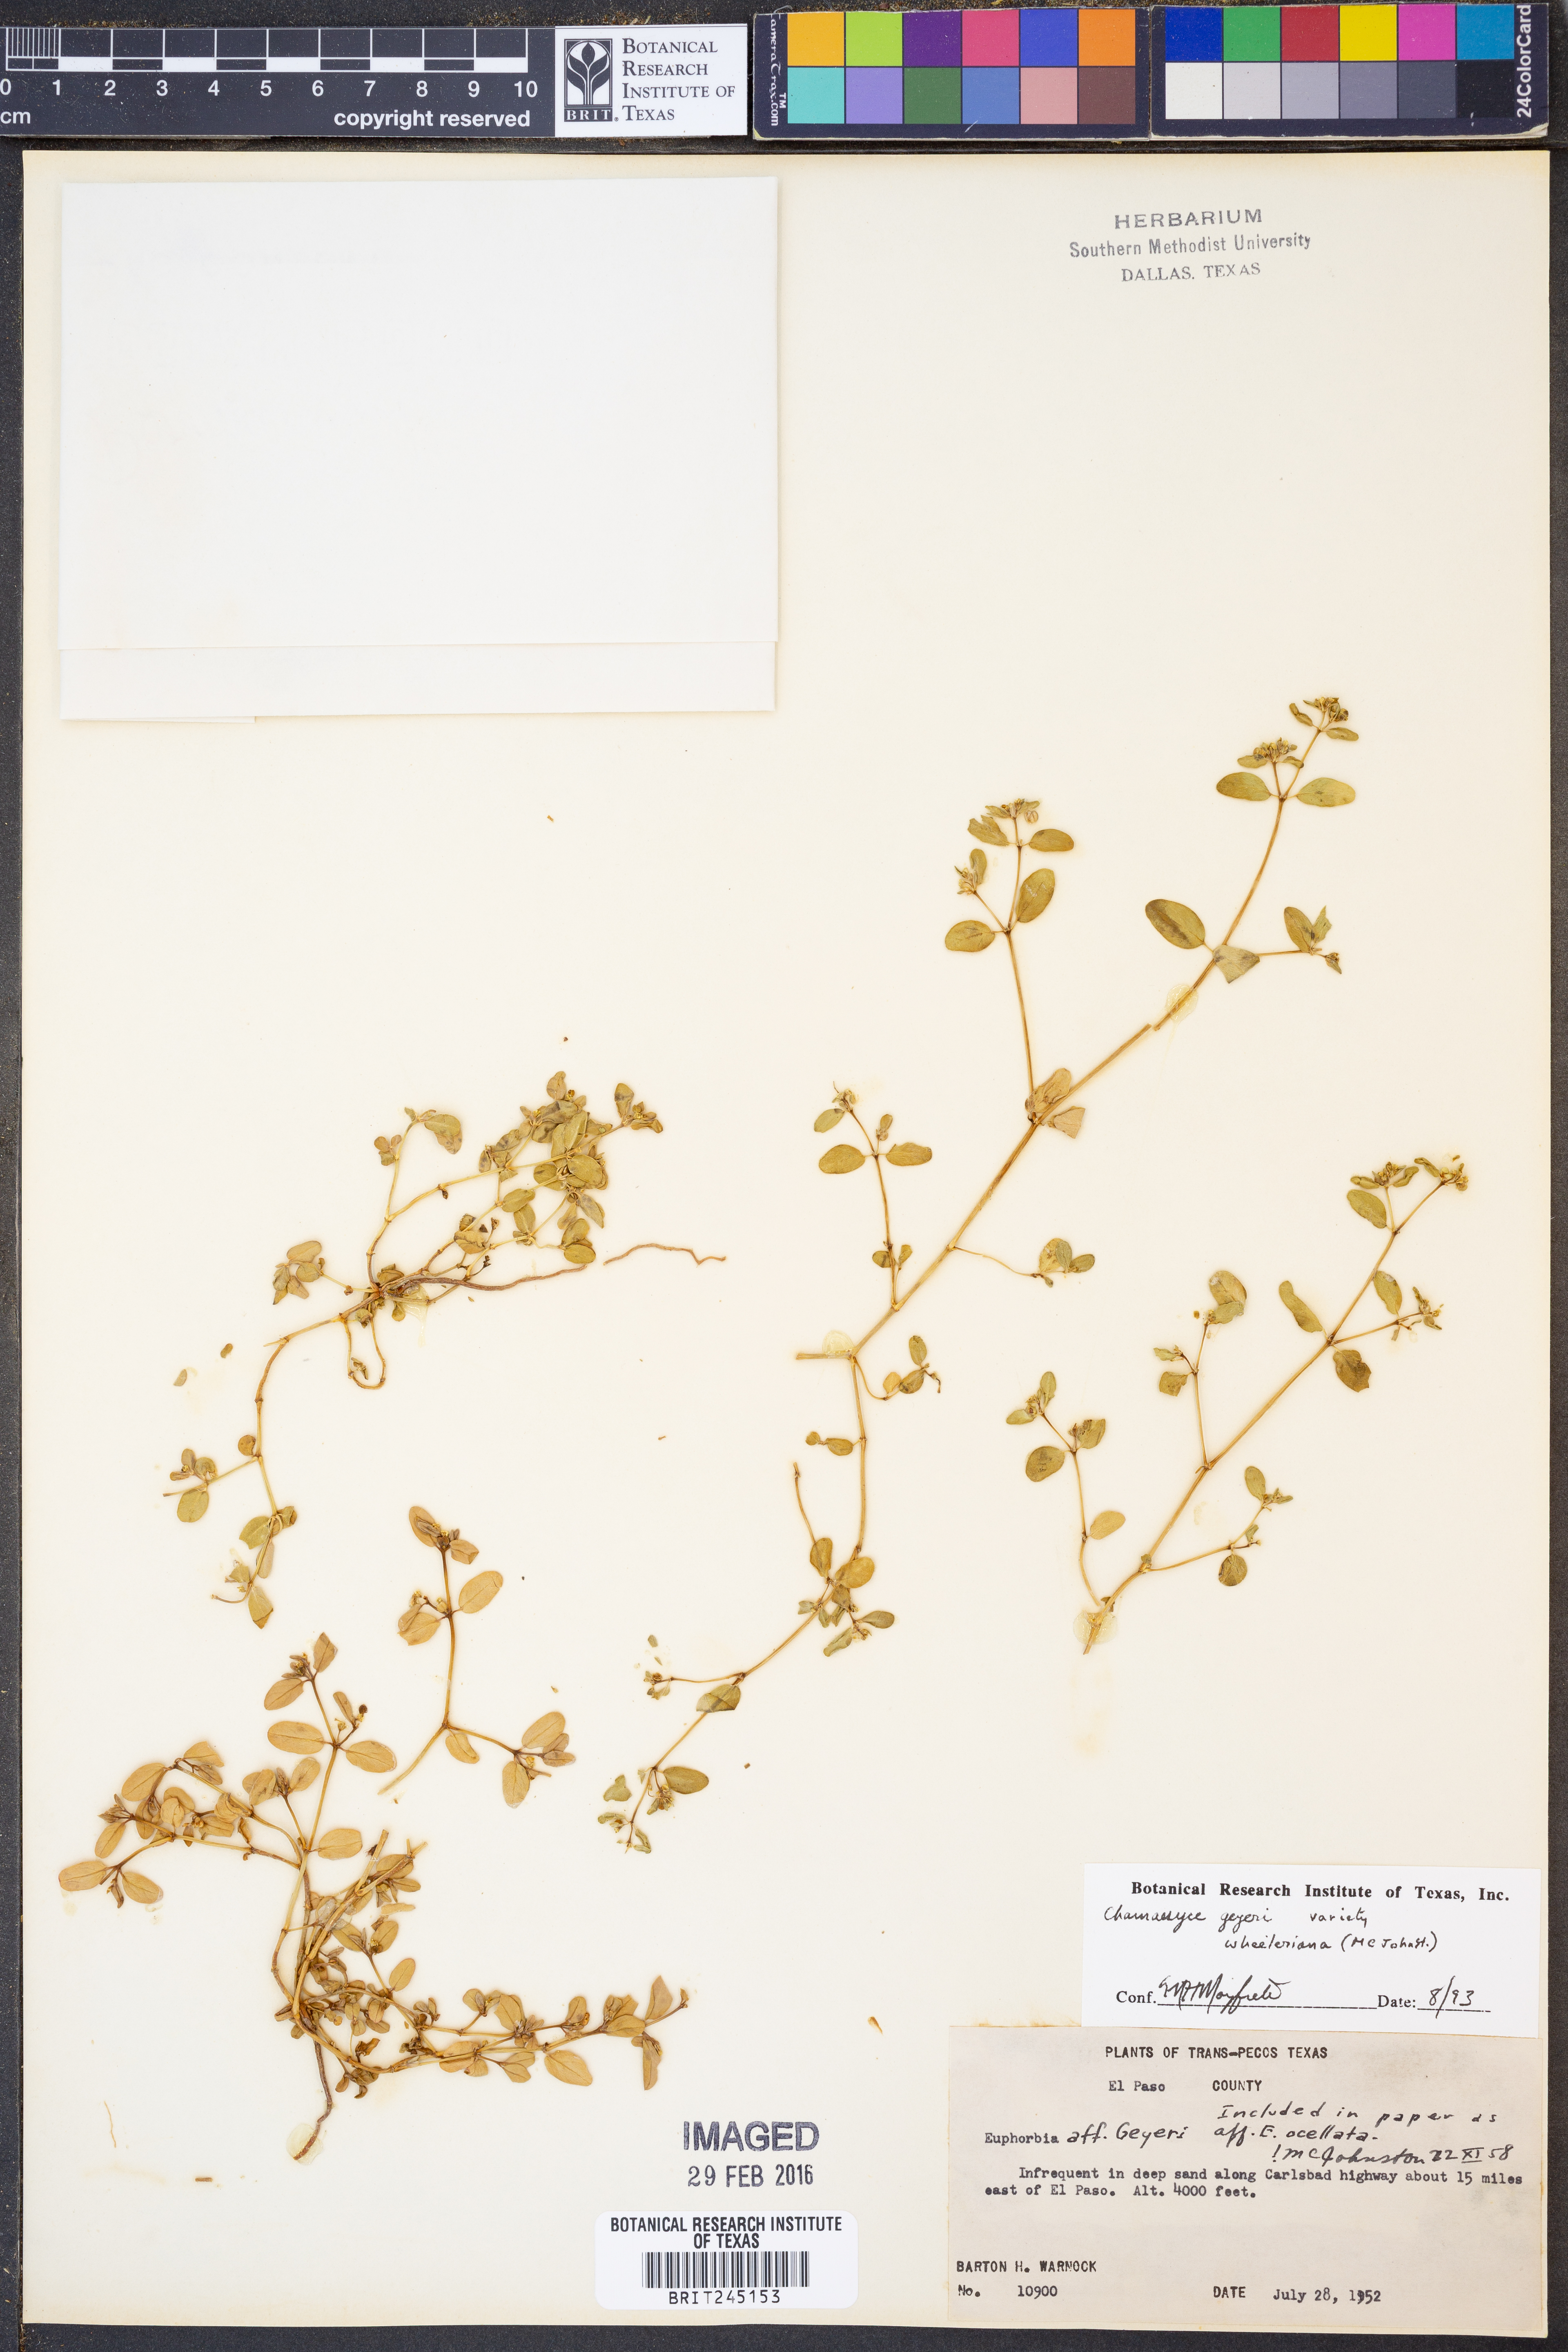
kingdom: Plantae
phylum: Tracheophyta
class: Magnoliopsida
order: Malpighiales
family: Euphorbiaceae
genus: Euphorbia
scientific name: Euphorbia geyeri
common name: Geyer's spurge
